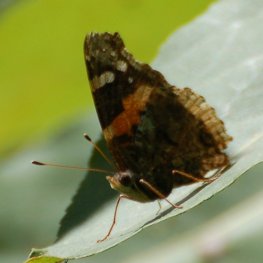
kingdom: Animalia
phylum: Arthropoda
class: Insecta
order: Lepidoptera
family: Nymphalidae
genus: Vanessa
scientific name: Vanessa atalanta
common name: Red Admiral
